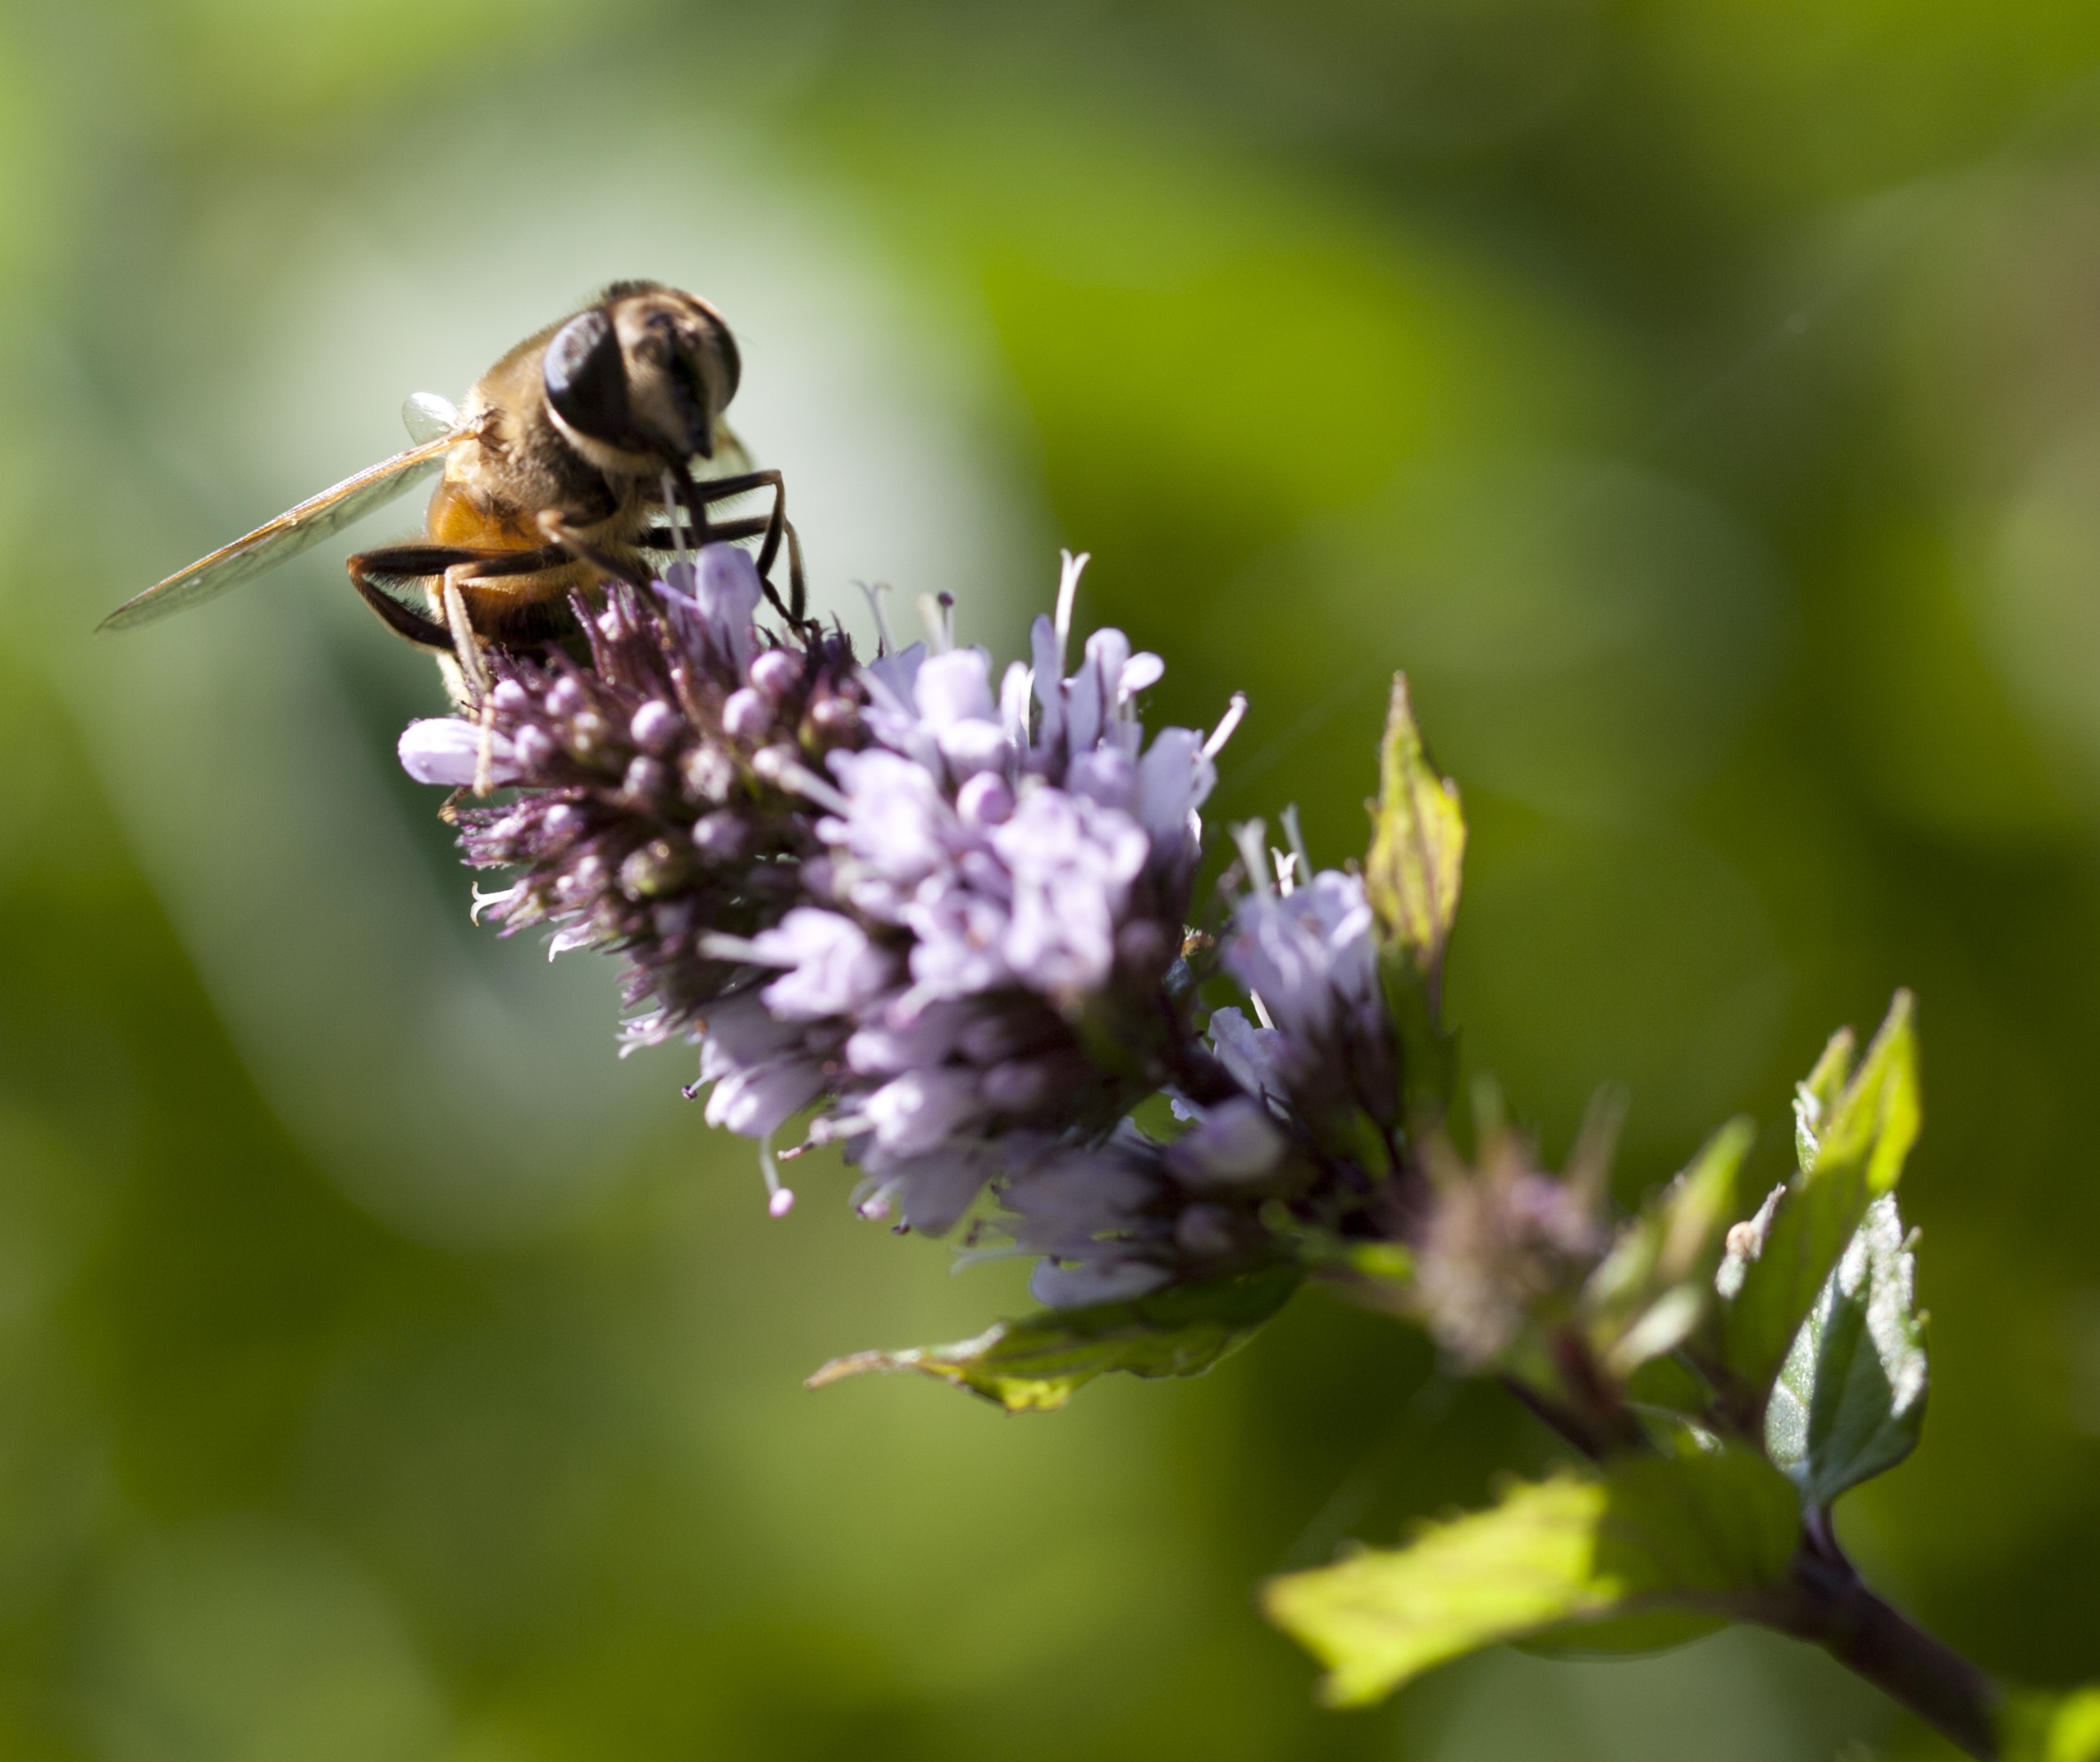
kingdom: Animalia
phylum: Arthropoda
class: Insecta
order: Diptera
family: Syrphidae
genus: Eristalis
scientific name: Eristalis tenax
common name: Droneflue
